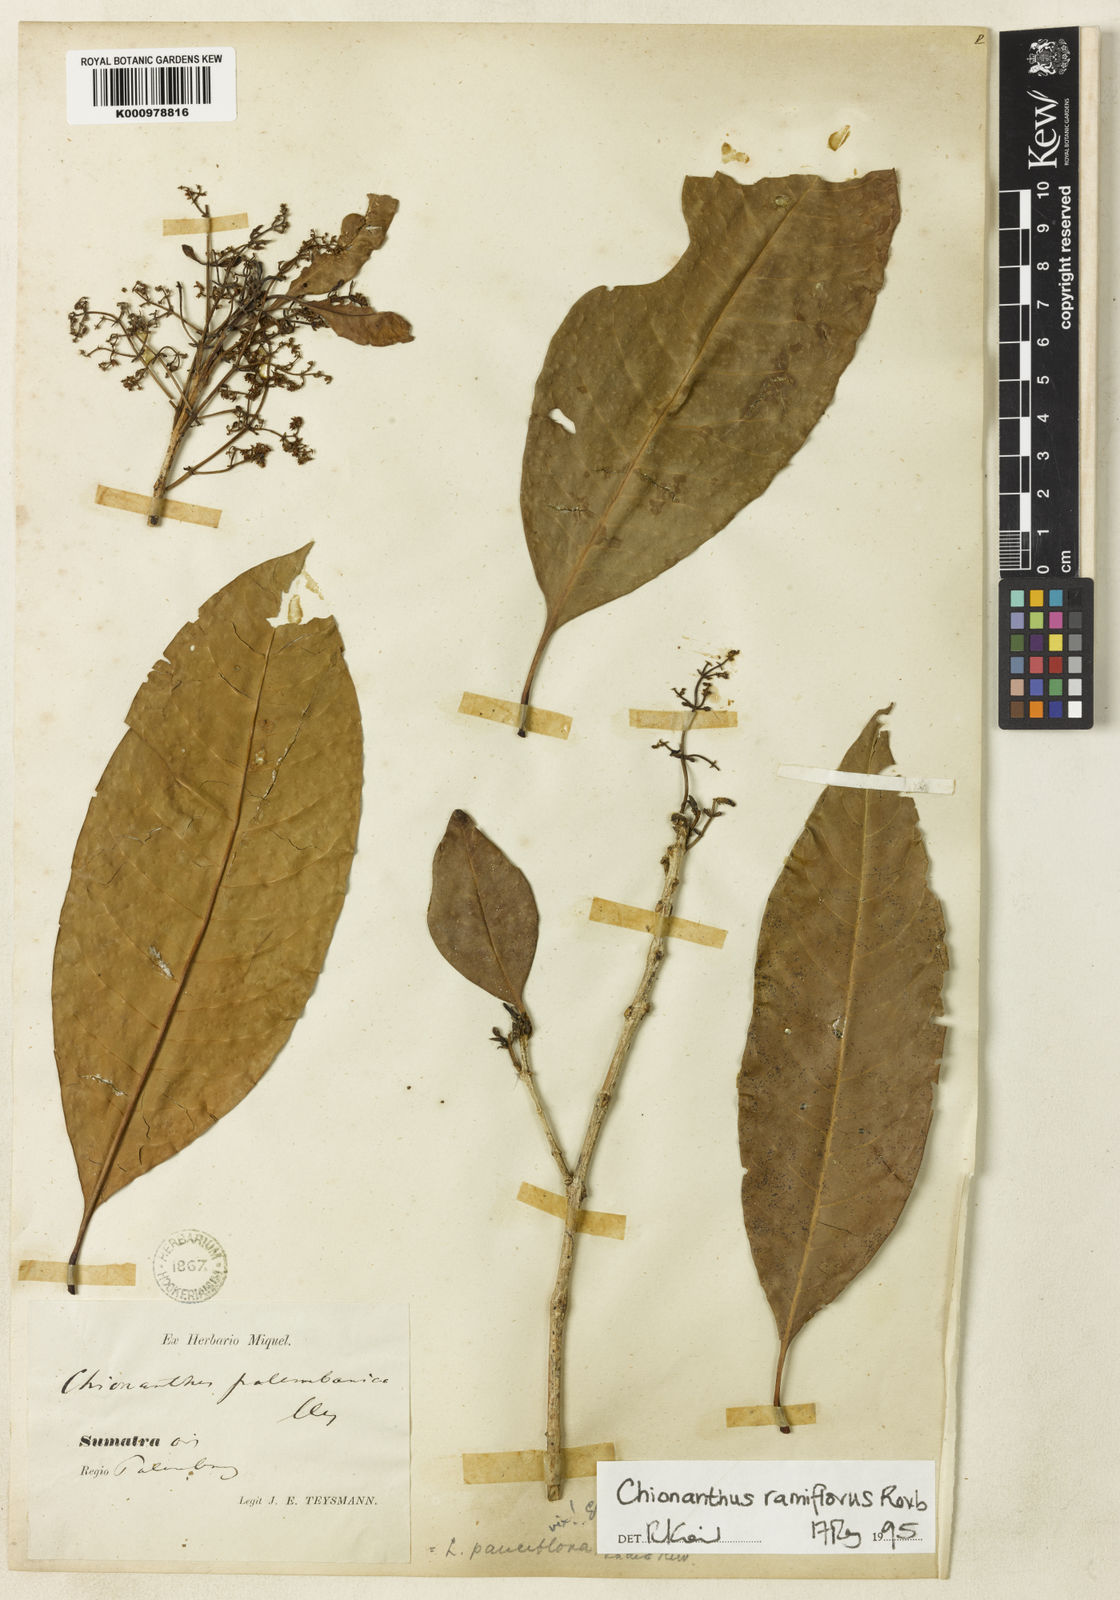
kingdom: Plantae
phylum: Tracheophyta
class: Magnoliopsida
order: Lamiales
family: Oleaceae
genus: Chionanthus
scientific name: Chionanthus ramiflorus
